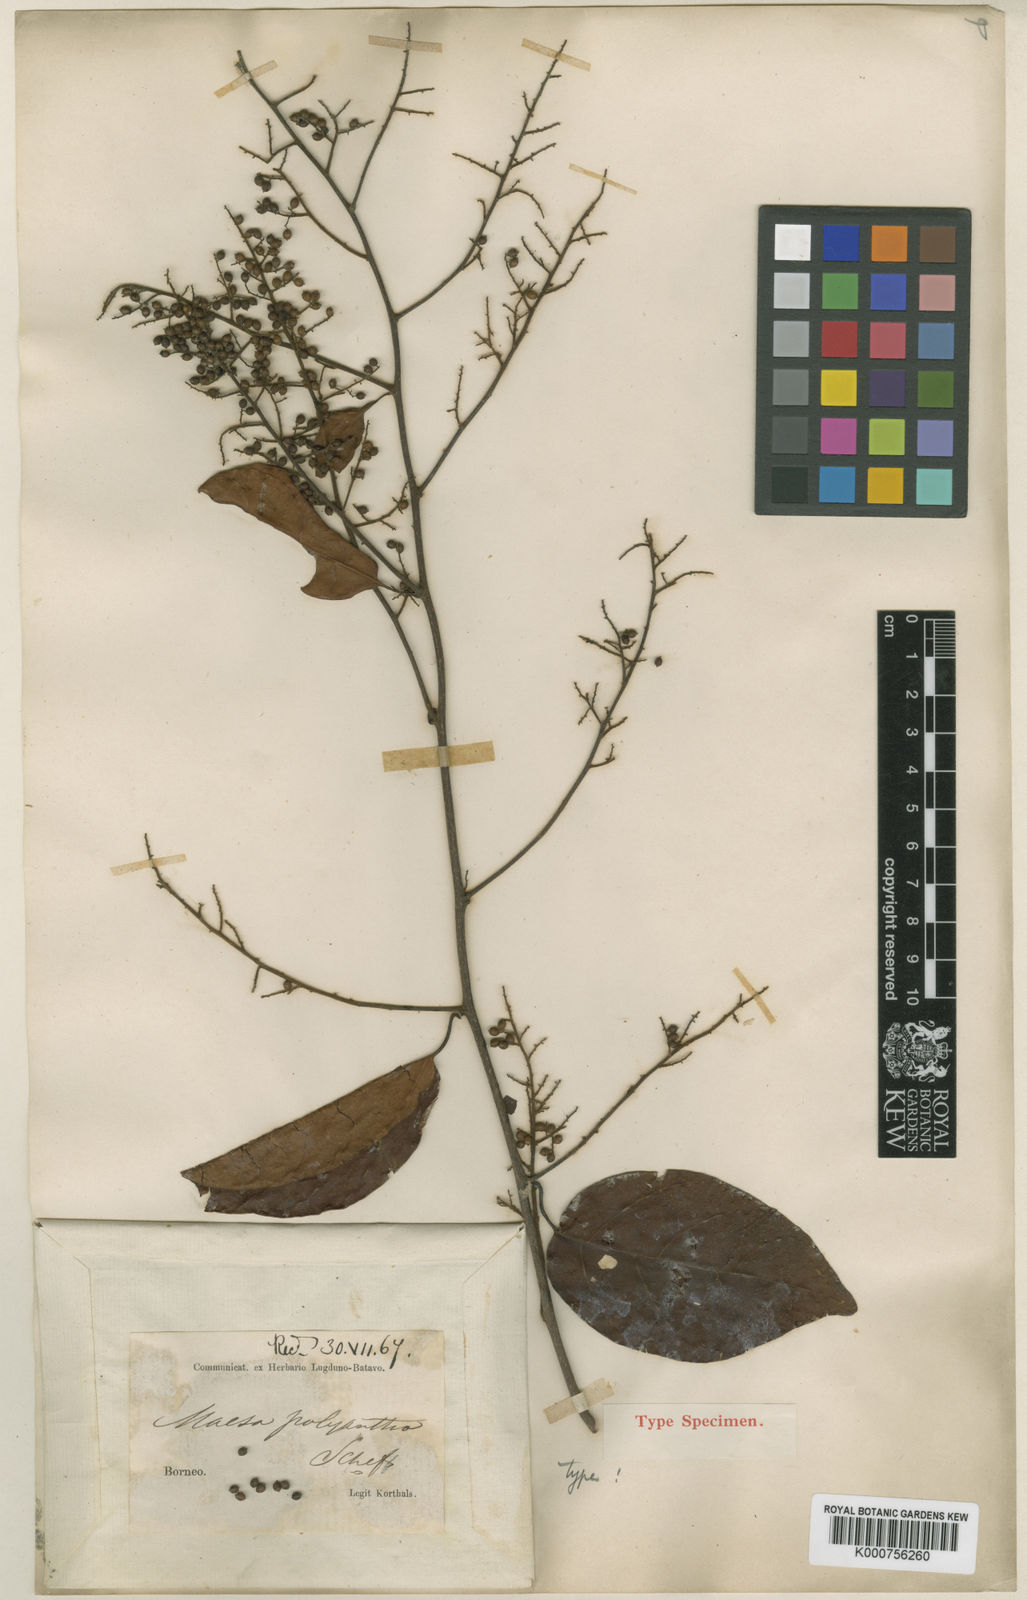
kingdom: Plantae
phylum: Tracheophyta
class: Magnoliopsida
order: Ericales
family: Primulaceae
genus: Maesa
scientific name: Maesa macrothyrsa
